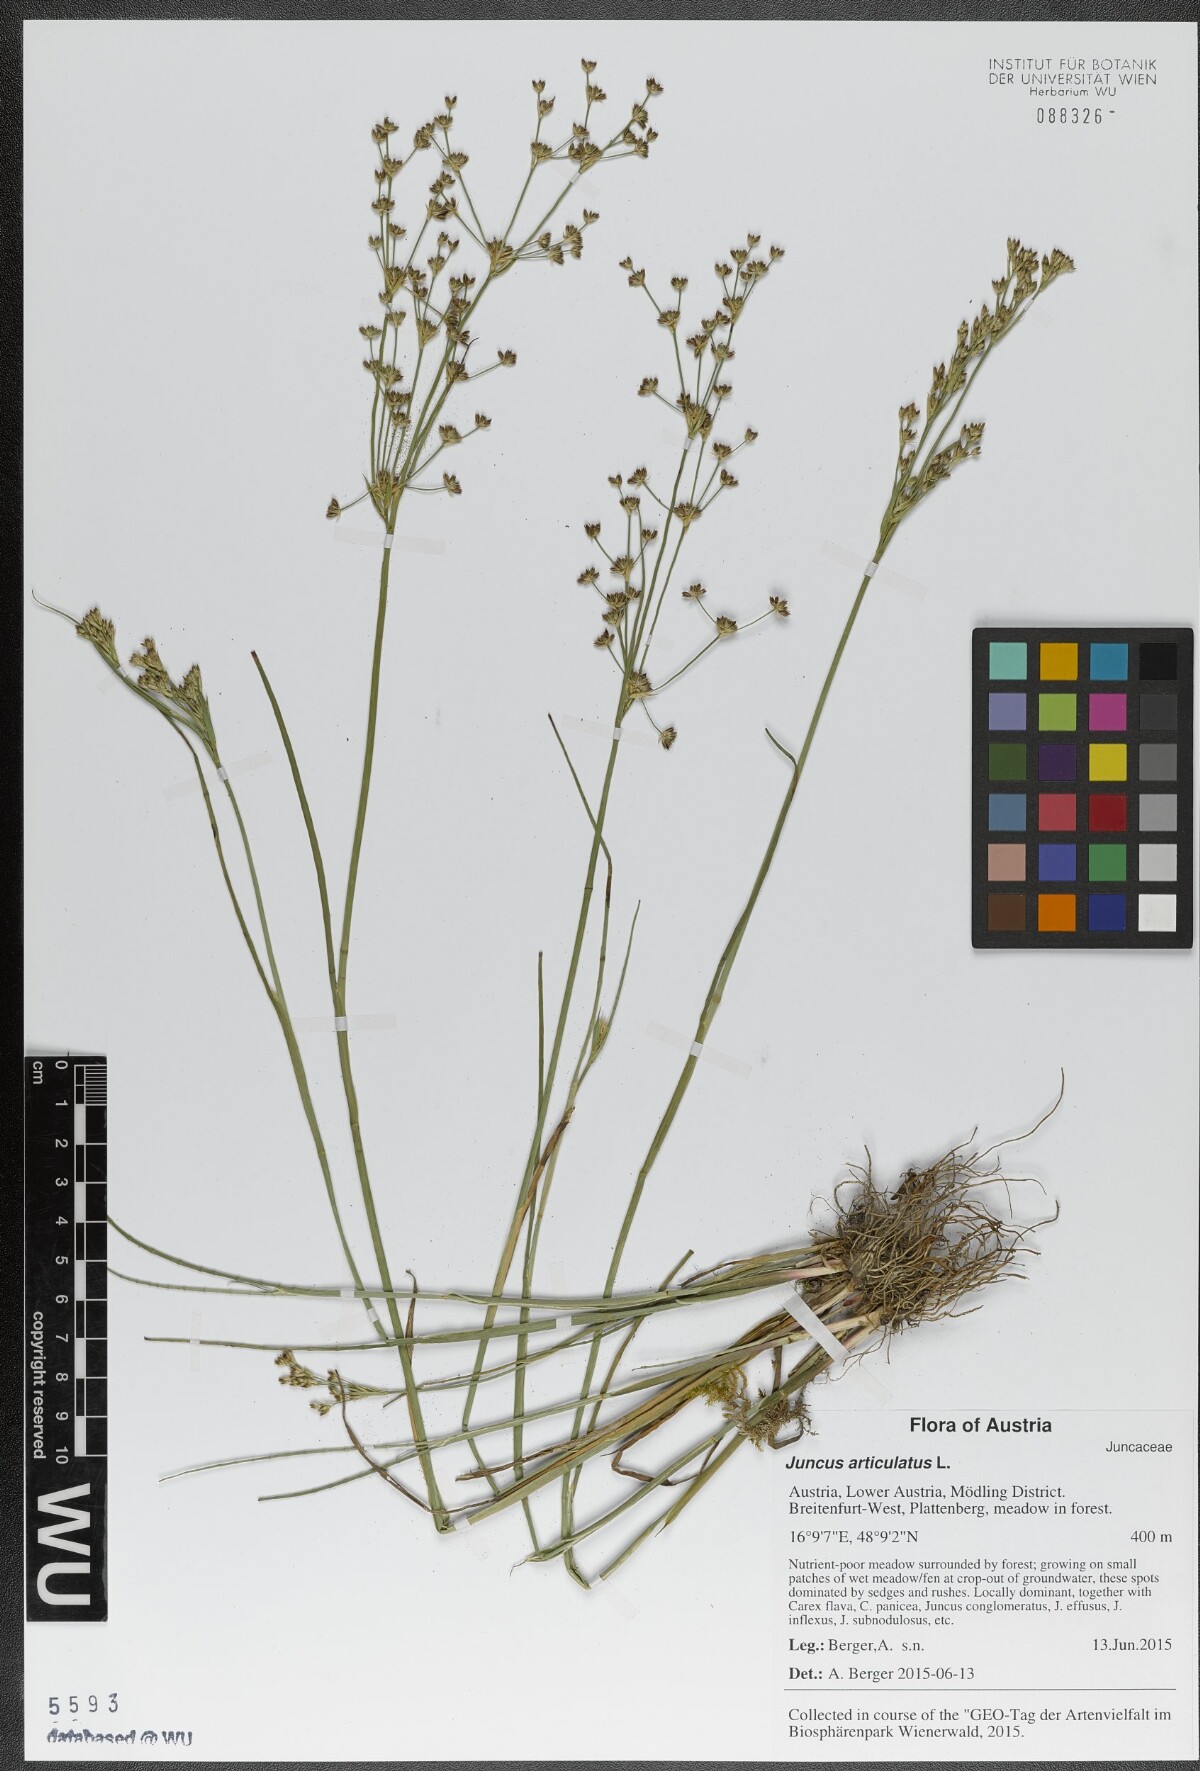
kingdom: Plantae
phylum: Tracheophyta
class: Liliopsida
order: Poales
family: Juncaceae
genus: Juncus
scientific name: Juncus articulatus
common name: Jointed rush
